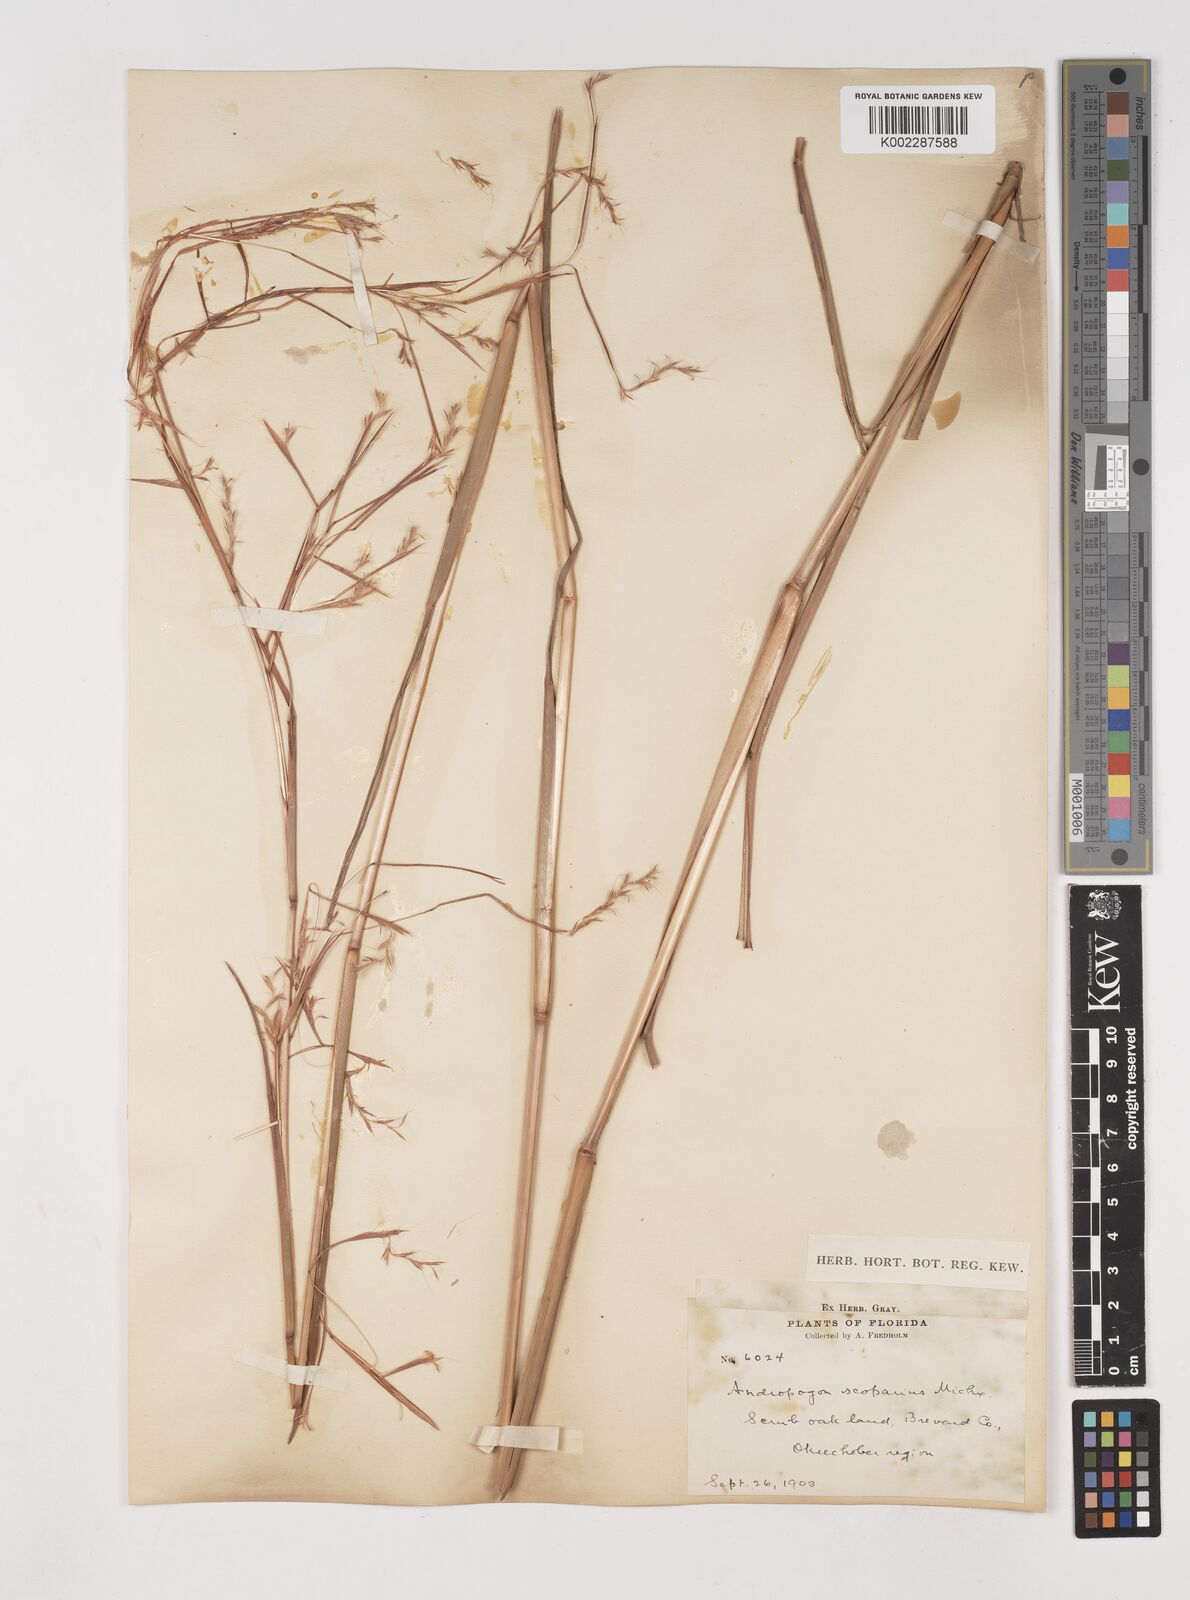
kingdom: Plantae
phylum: Tracheophyta
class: Liliopsida
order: Poales
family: Poaceae
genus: Schizachyrium
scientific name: Schizachyrium scoparium
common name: Little bluestem
